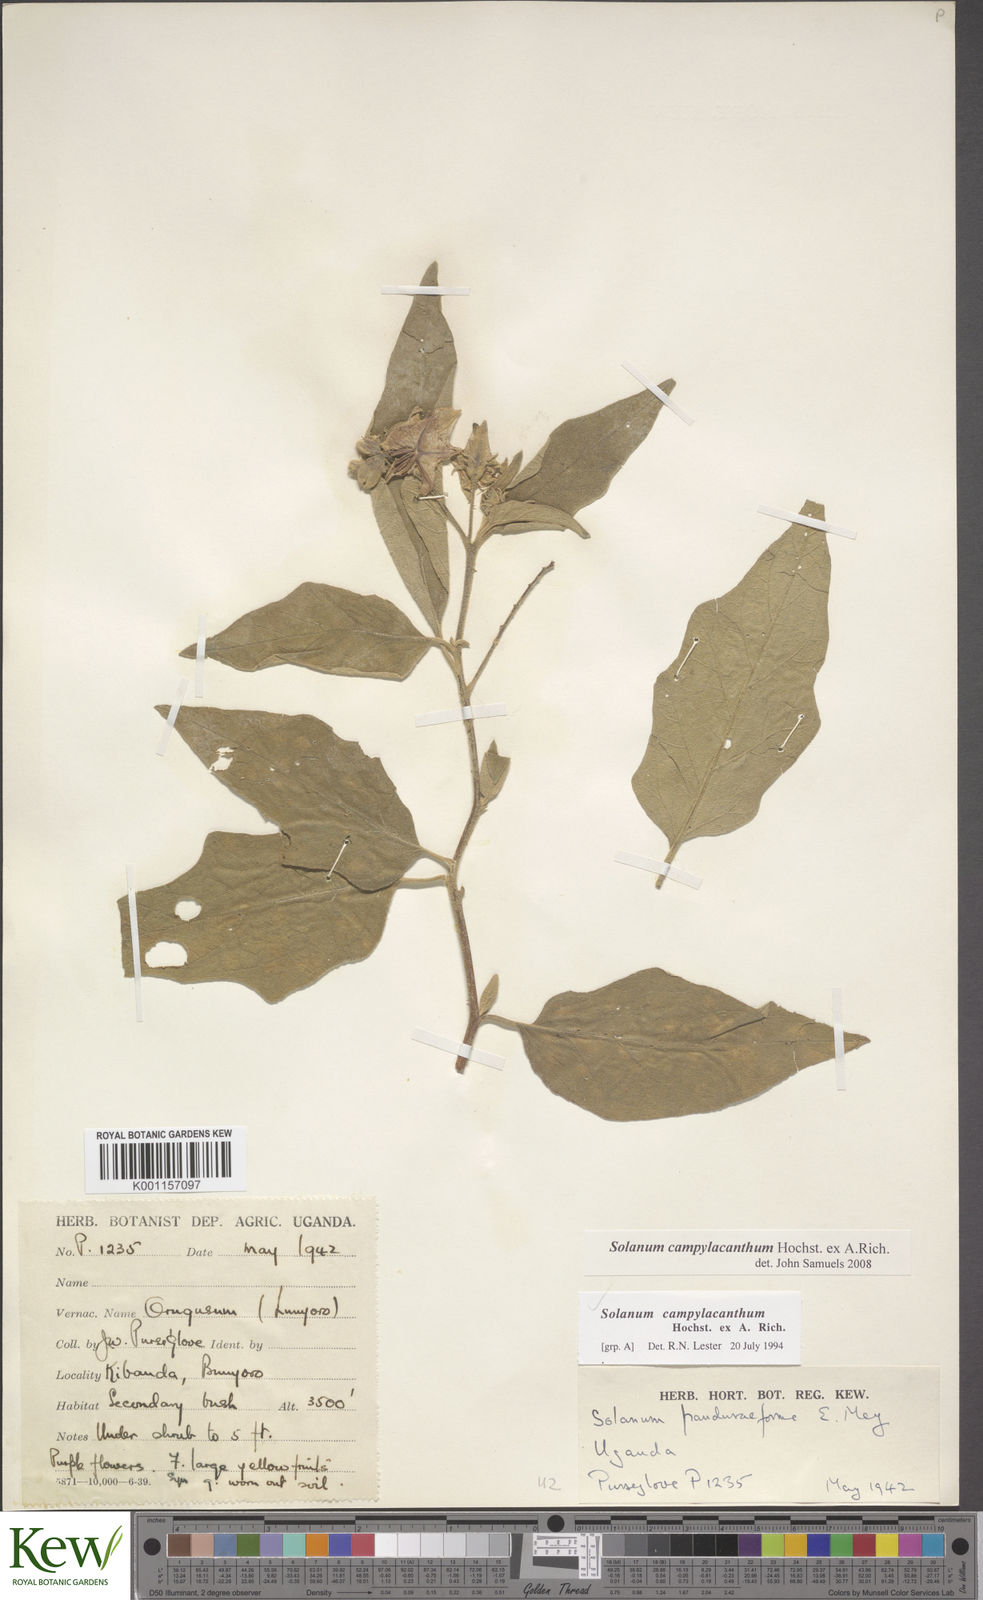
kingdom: Plantae
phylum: Tracheophyta
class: Magnoliopsida
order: Solanales
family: Solanaceae
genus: Solanum
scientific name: Solanum campylacanthum
